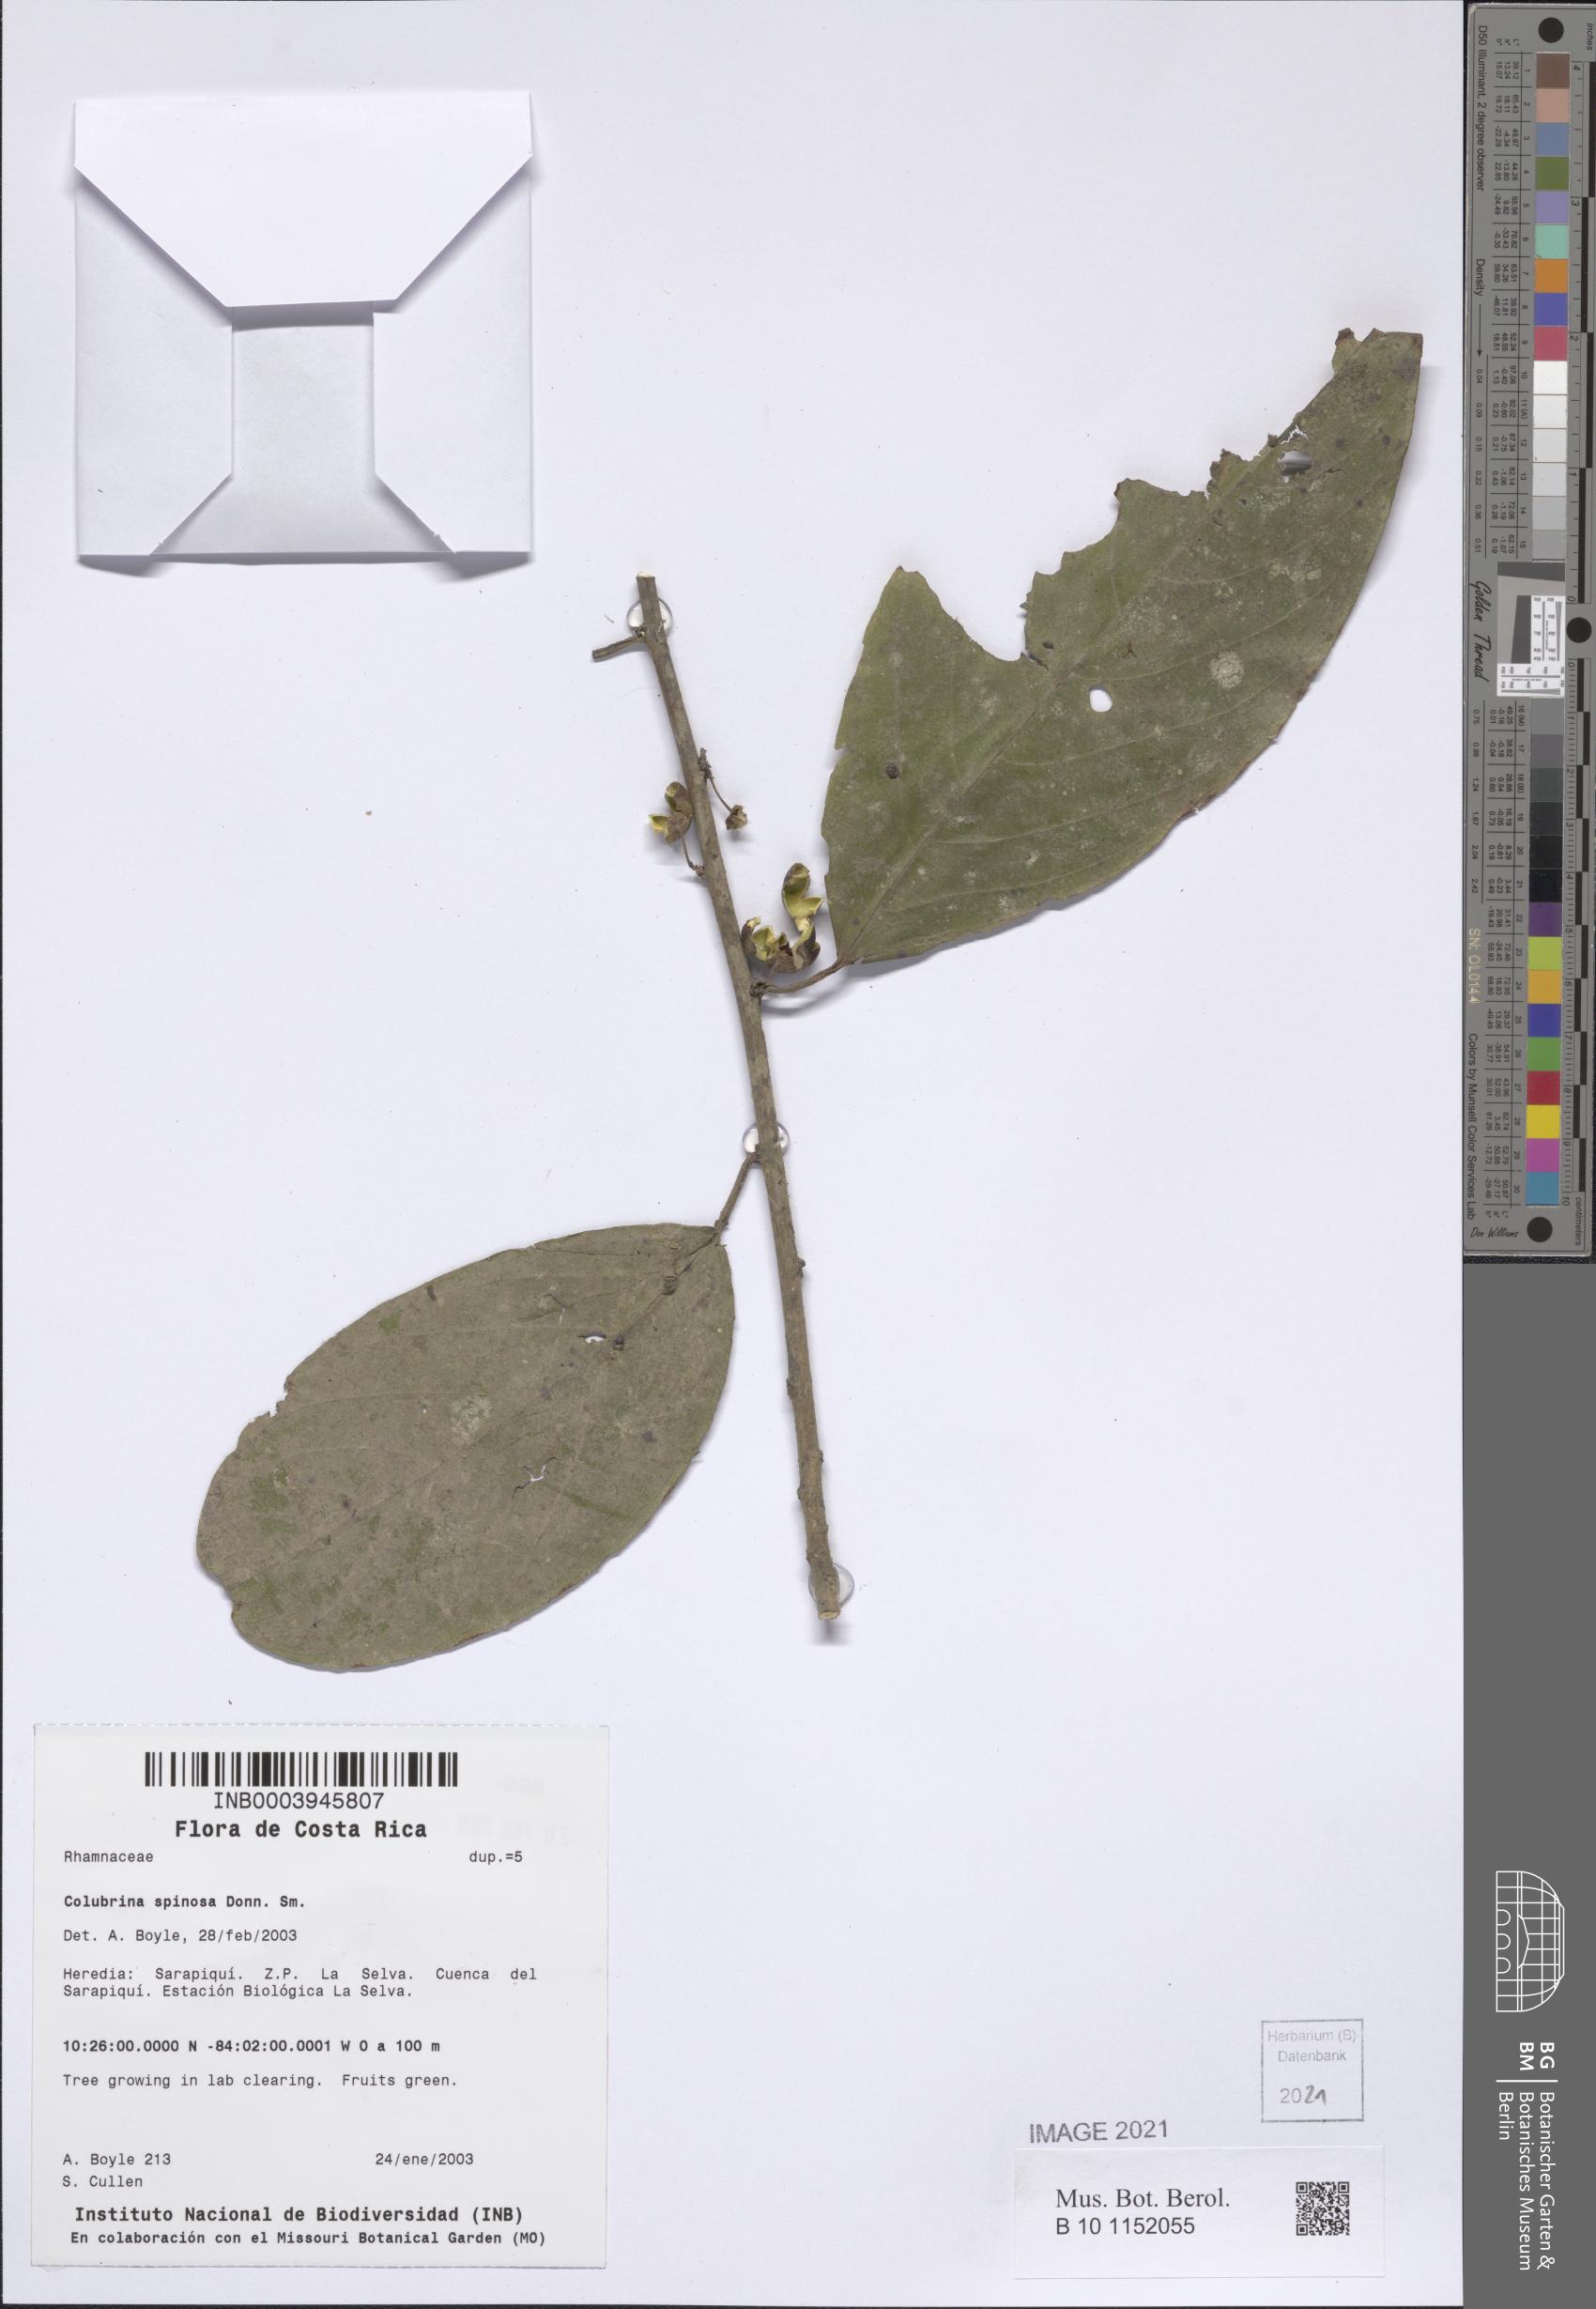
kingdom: Plantae
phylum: Tracheophyta
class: Magnoliopsida
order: Rosales
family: Rhamnaceae
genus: Colubrina
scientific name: Colubrina spinosa
